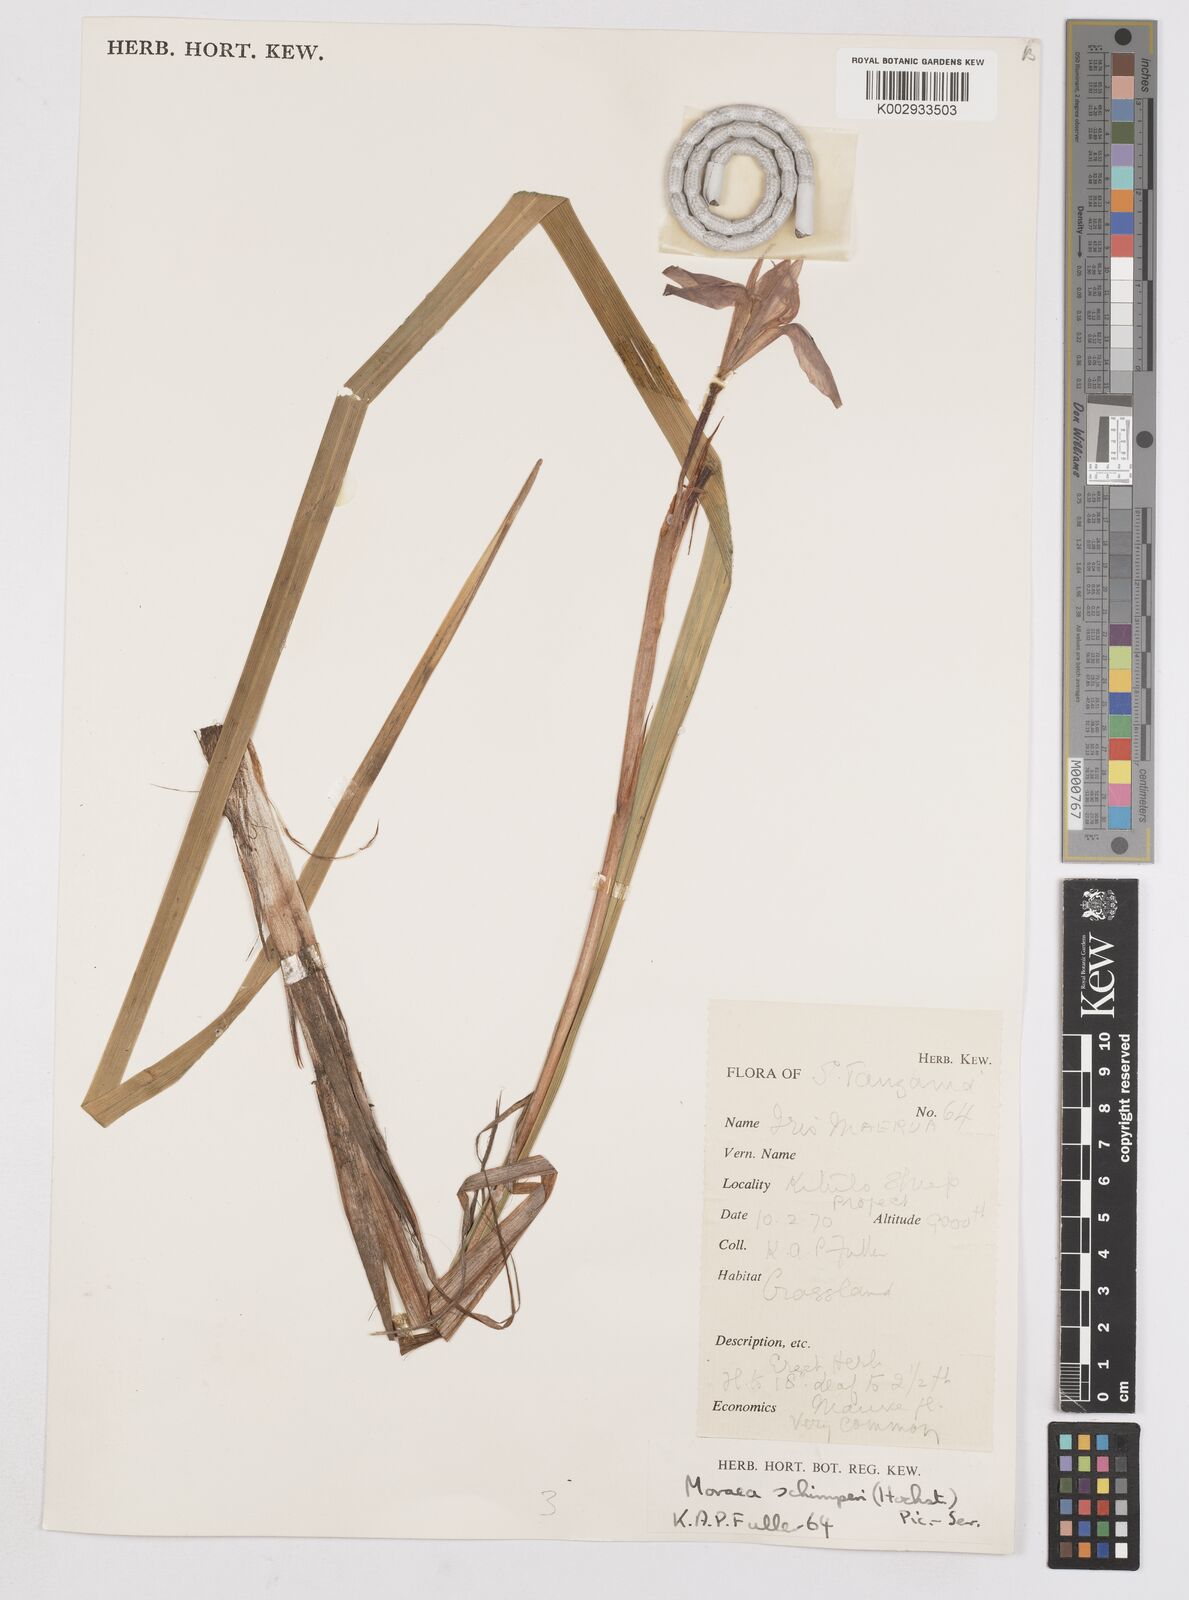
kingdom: Plantae
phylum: Tracheophyta
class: Liliopsida
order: Asparagales
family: Iridaceae
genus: Moraea
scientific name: Moraea schimperi
